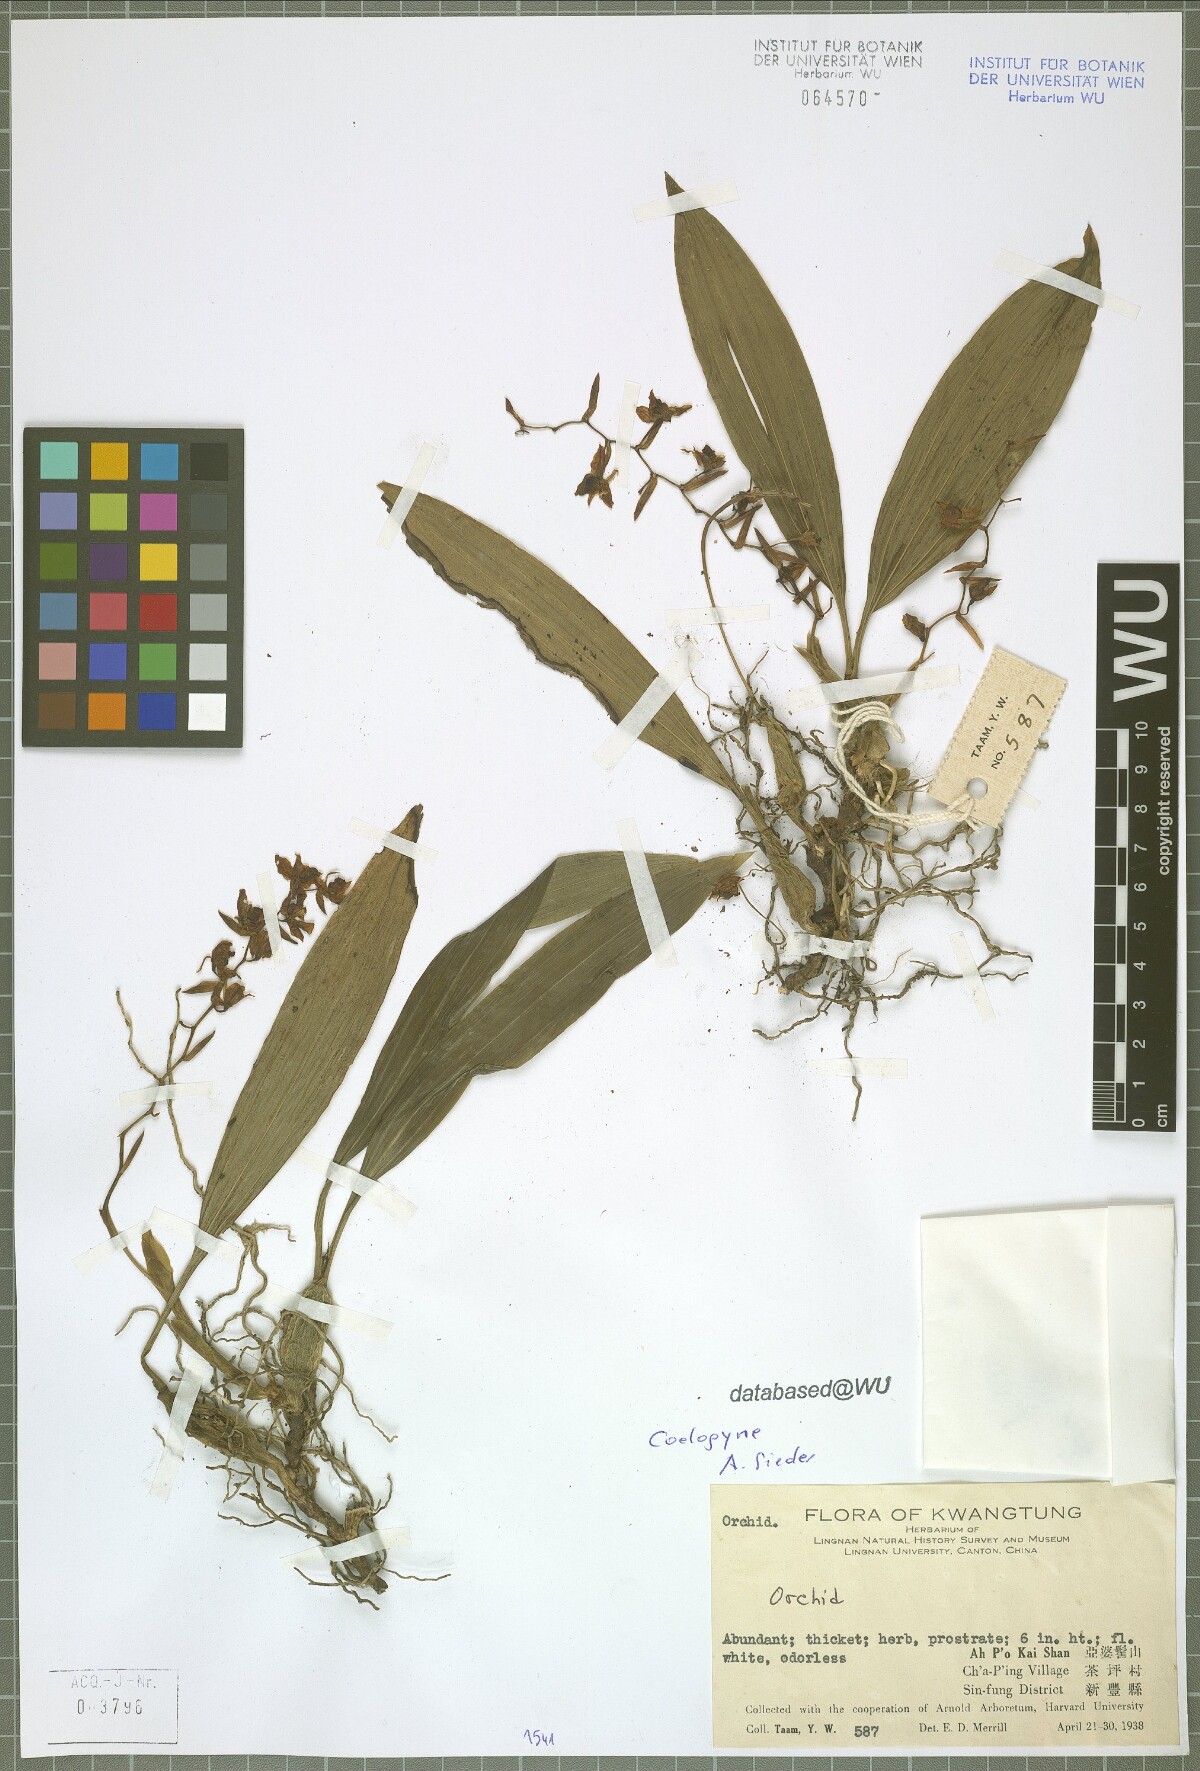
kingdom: Plantae
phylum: Tracheophyta
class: Liliopsida
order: Asparagales
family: Orchidaceae
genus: Coelogyne
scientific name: Coelogyne
